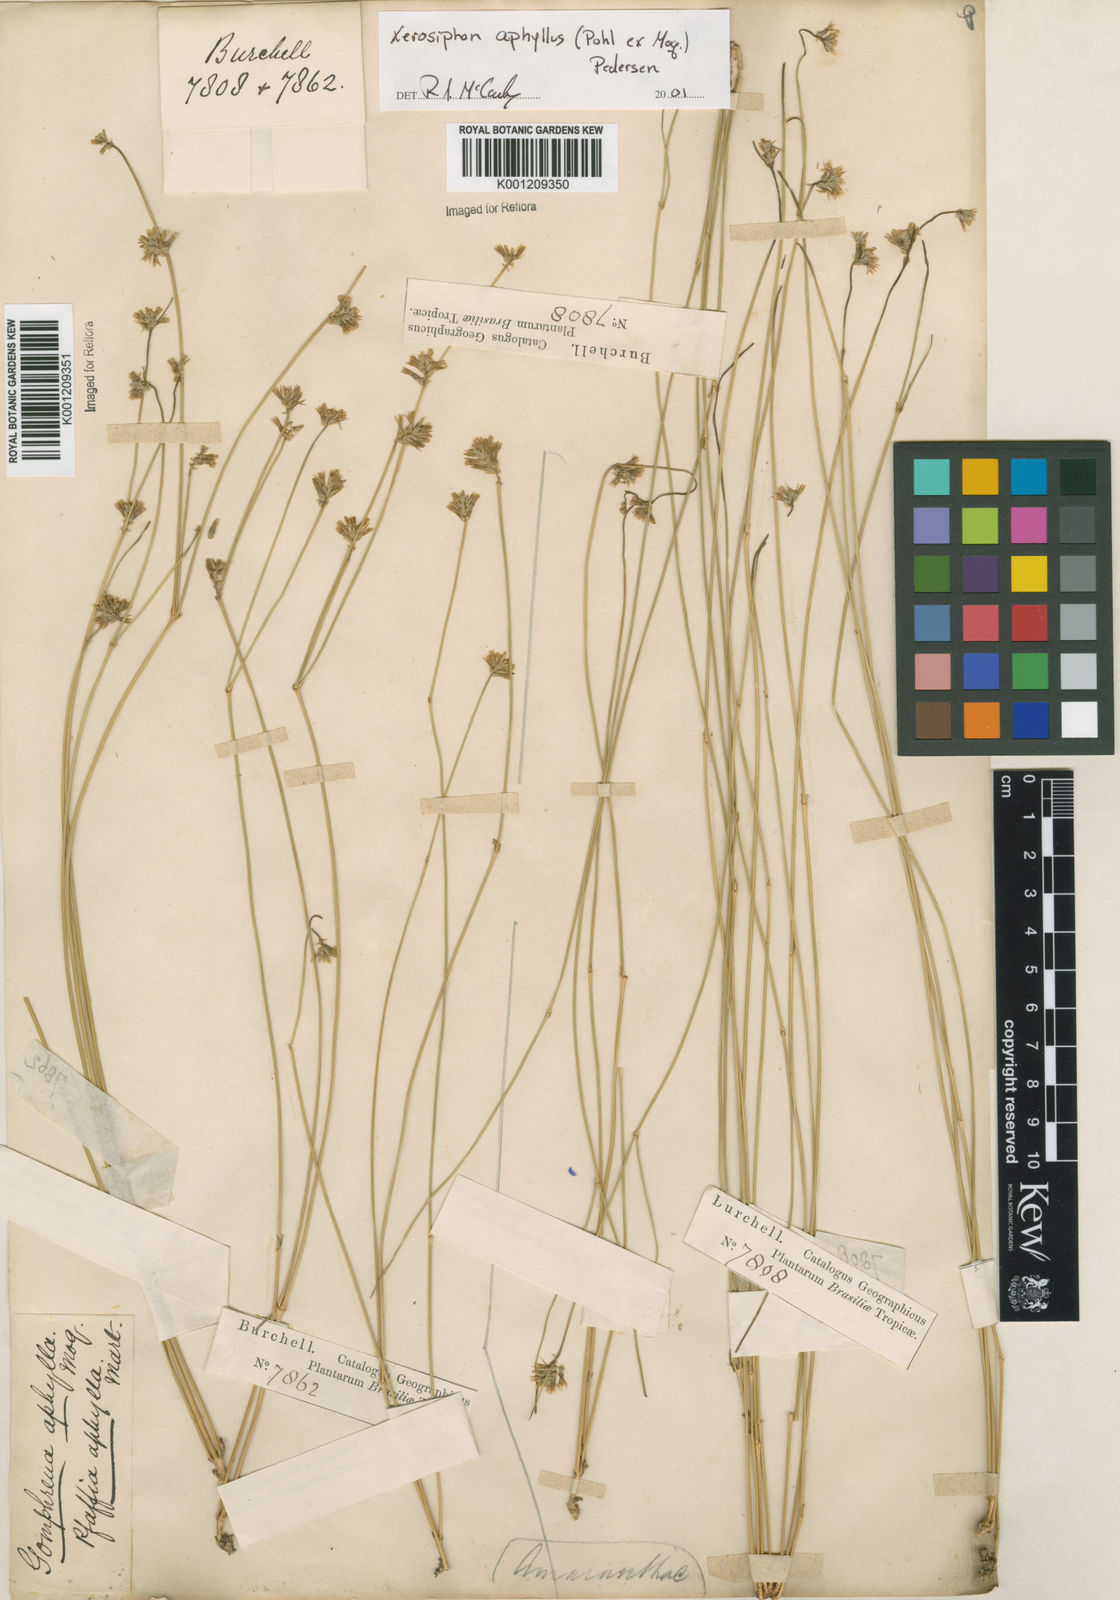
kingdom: Plantae
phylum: Tracheophyta
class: Magnoliopsida
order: Caryophyllales
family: Amaranthaceae
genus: Gomphrena
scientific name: Gomphrena aphylla
